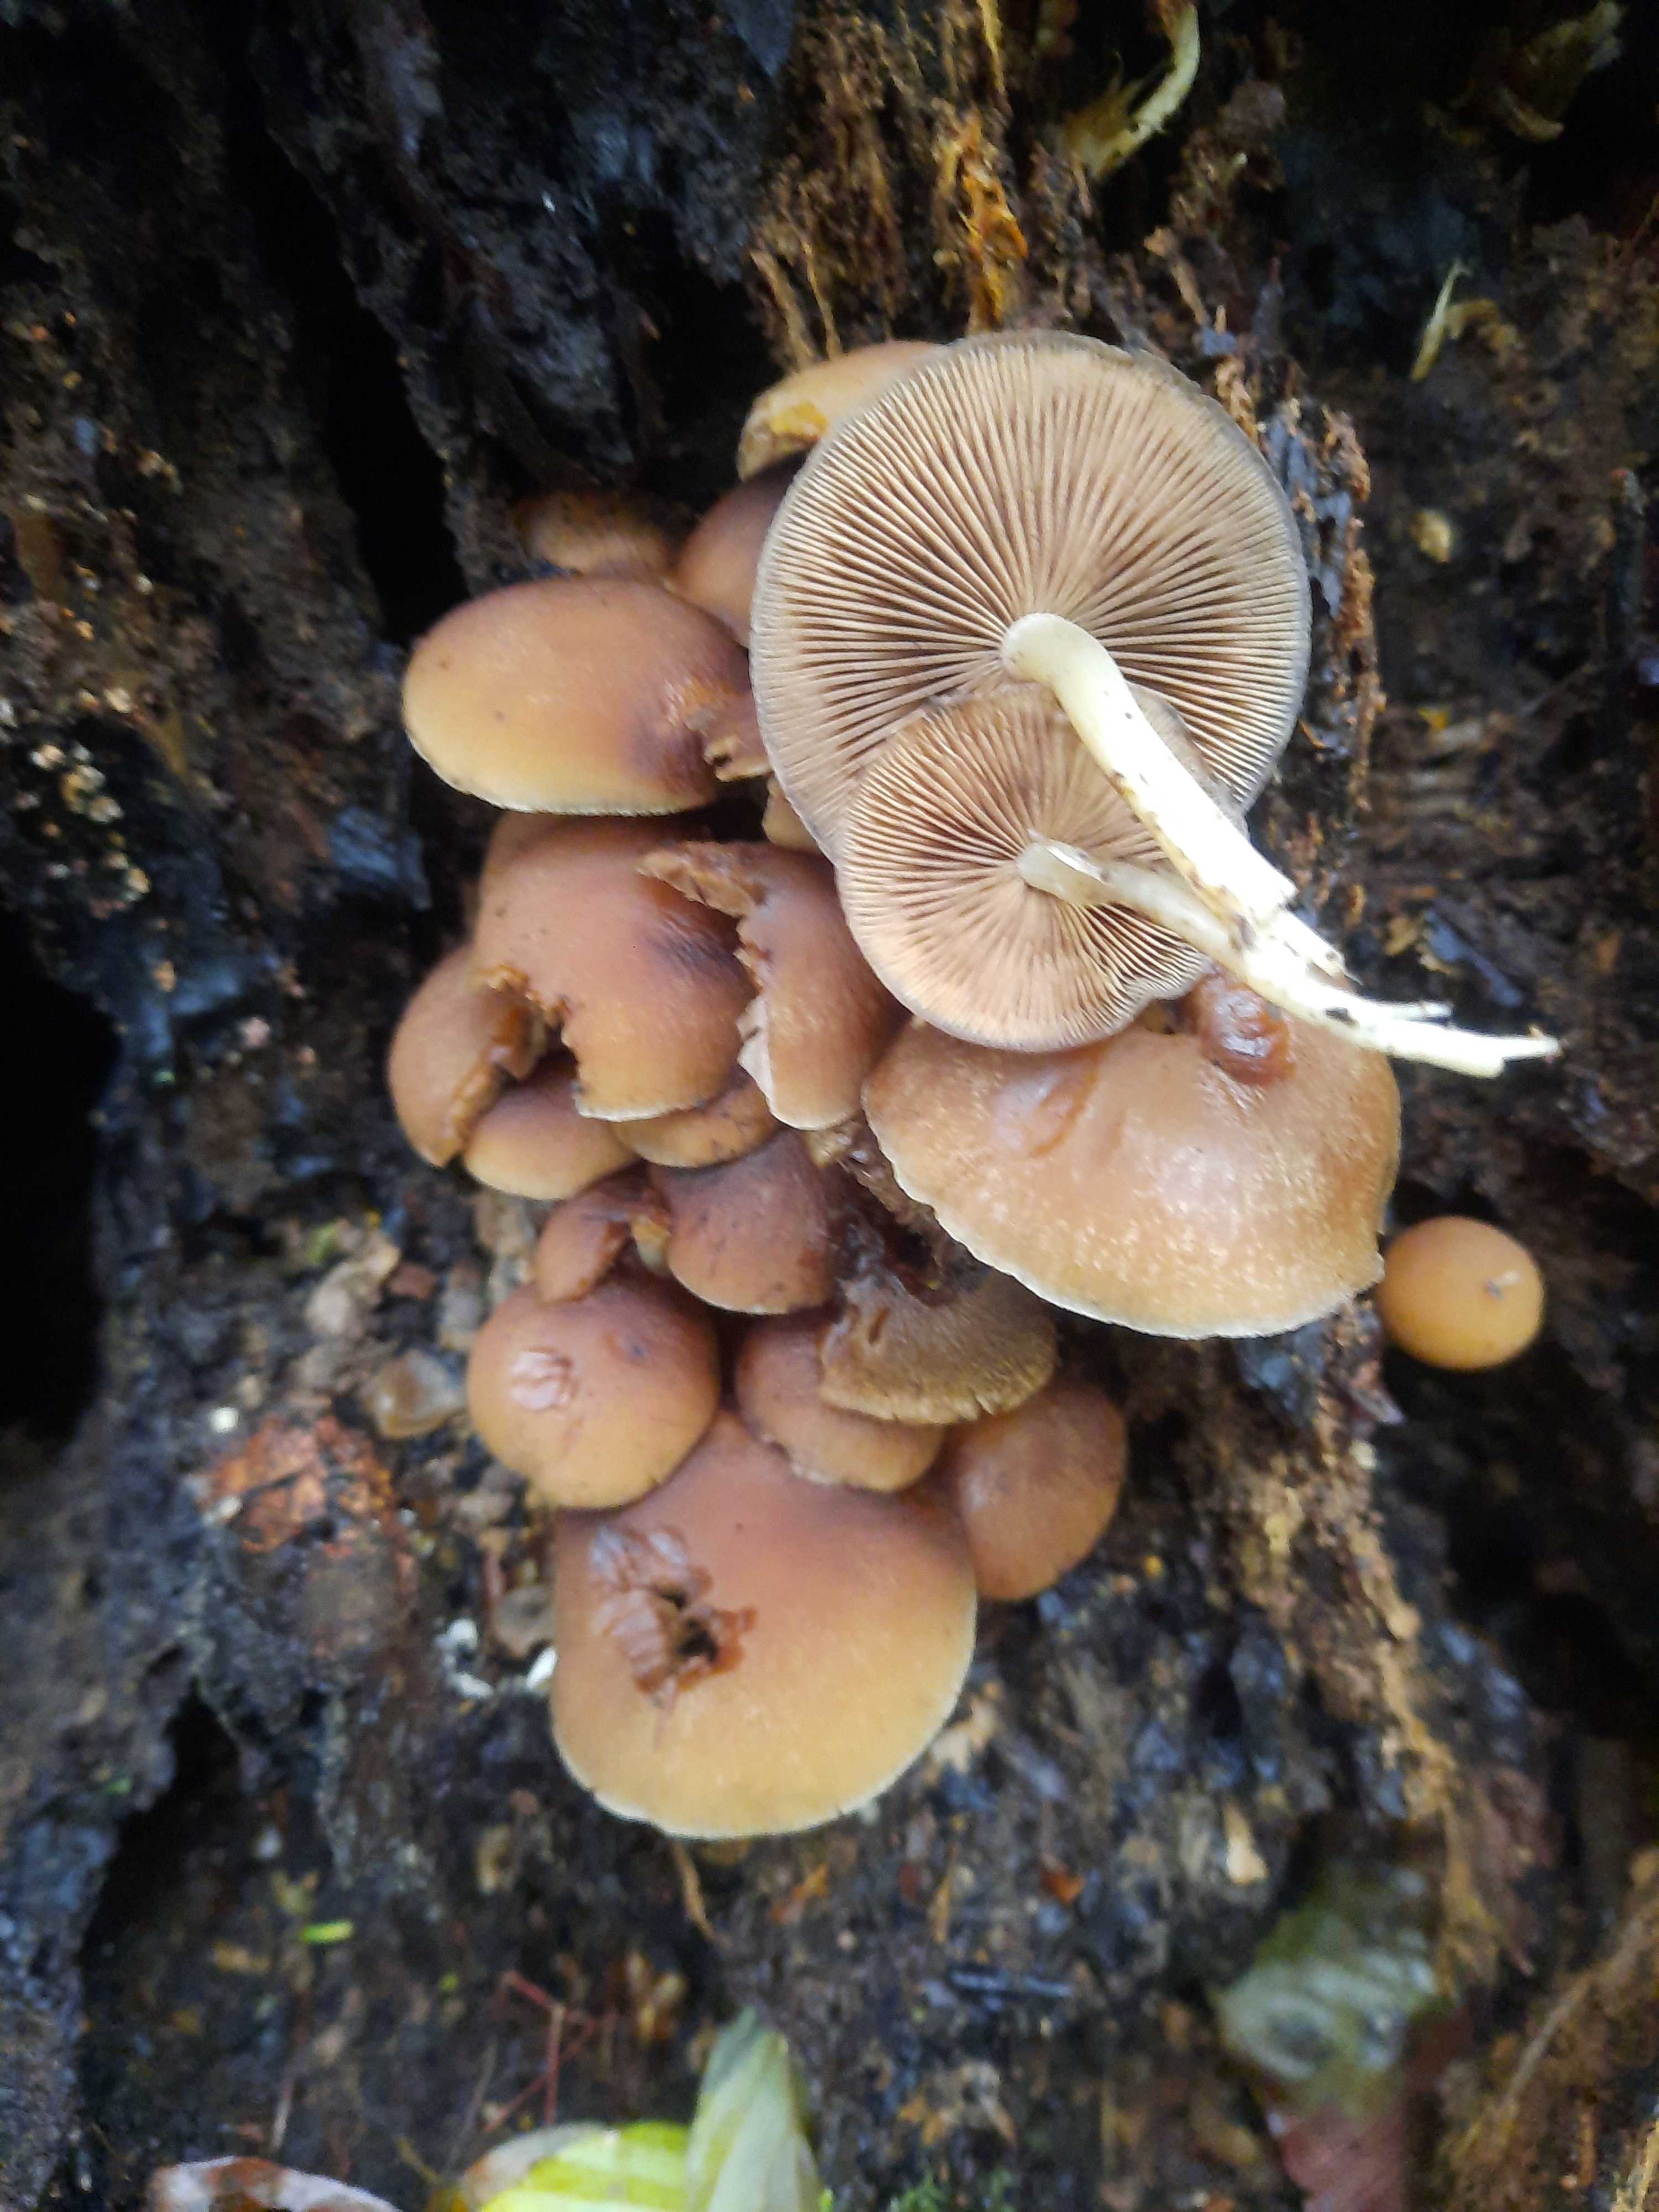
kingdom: Fungi
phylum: Basidiomycota
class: Agaricomycetes
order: Agaricales
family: Psathyrellaceae
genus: Psathyrella
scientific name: Psathyrella piluliformis
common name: lysstokket mørkhat
